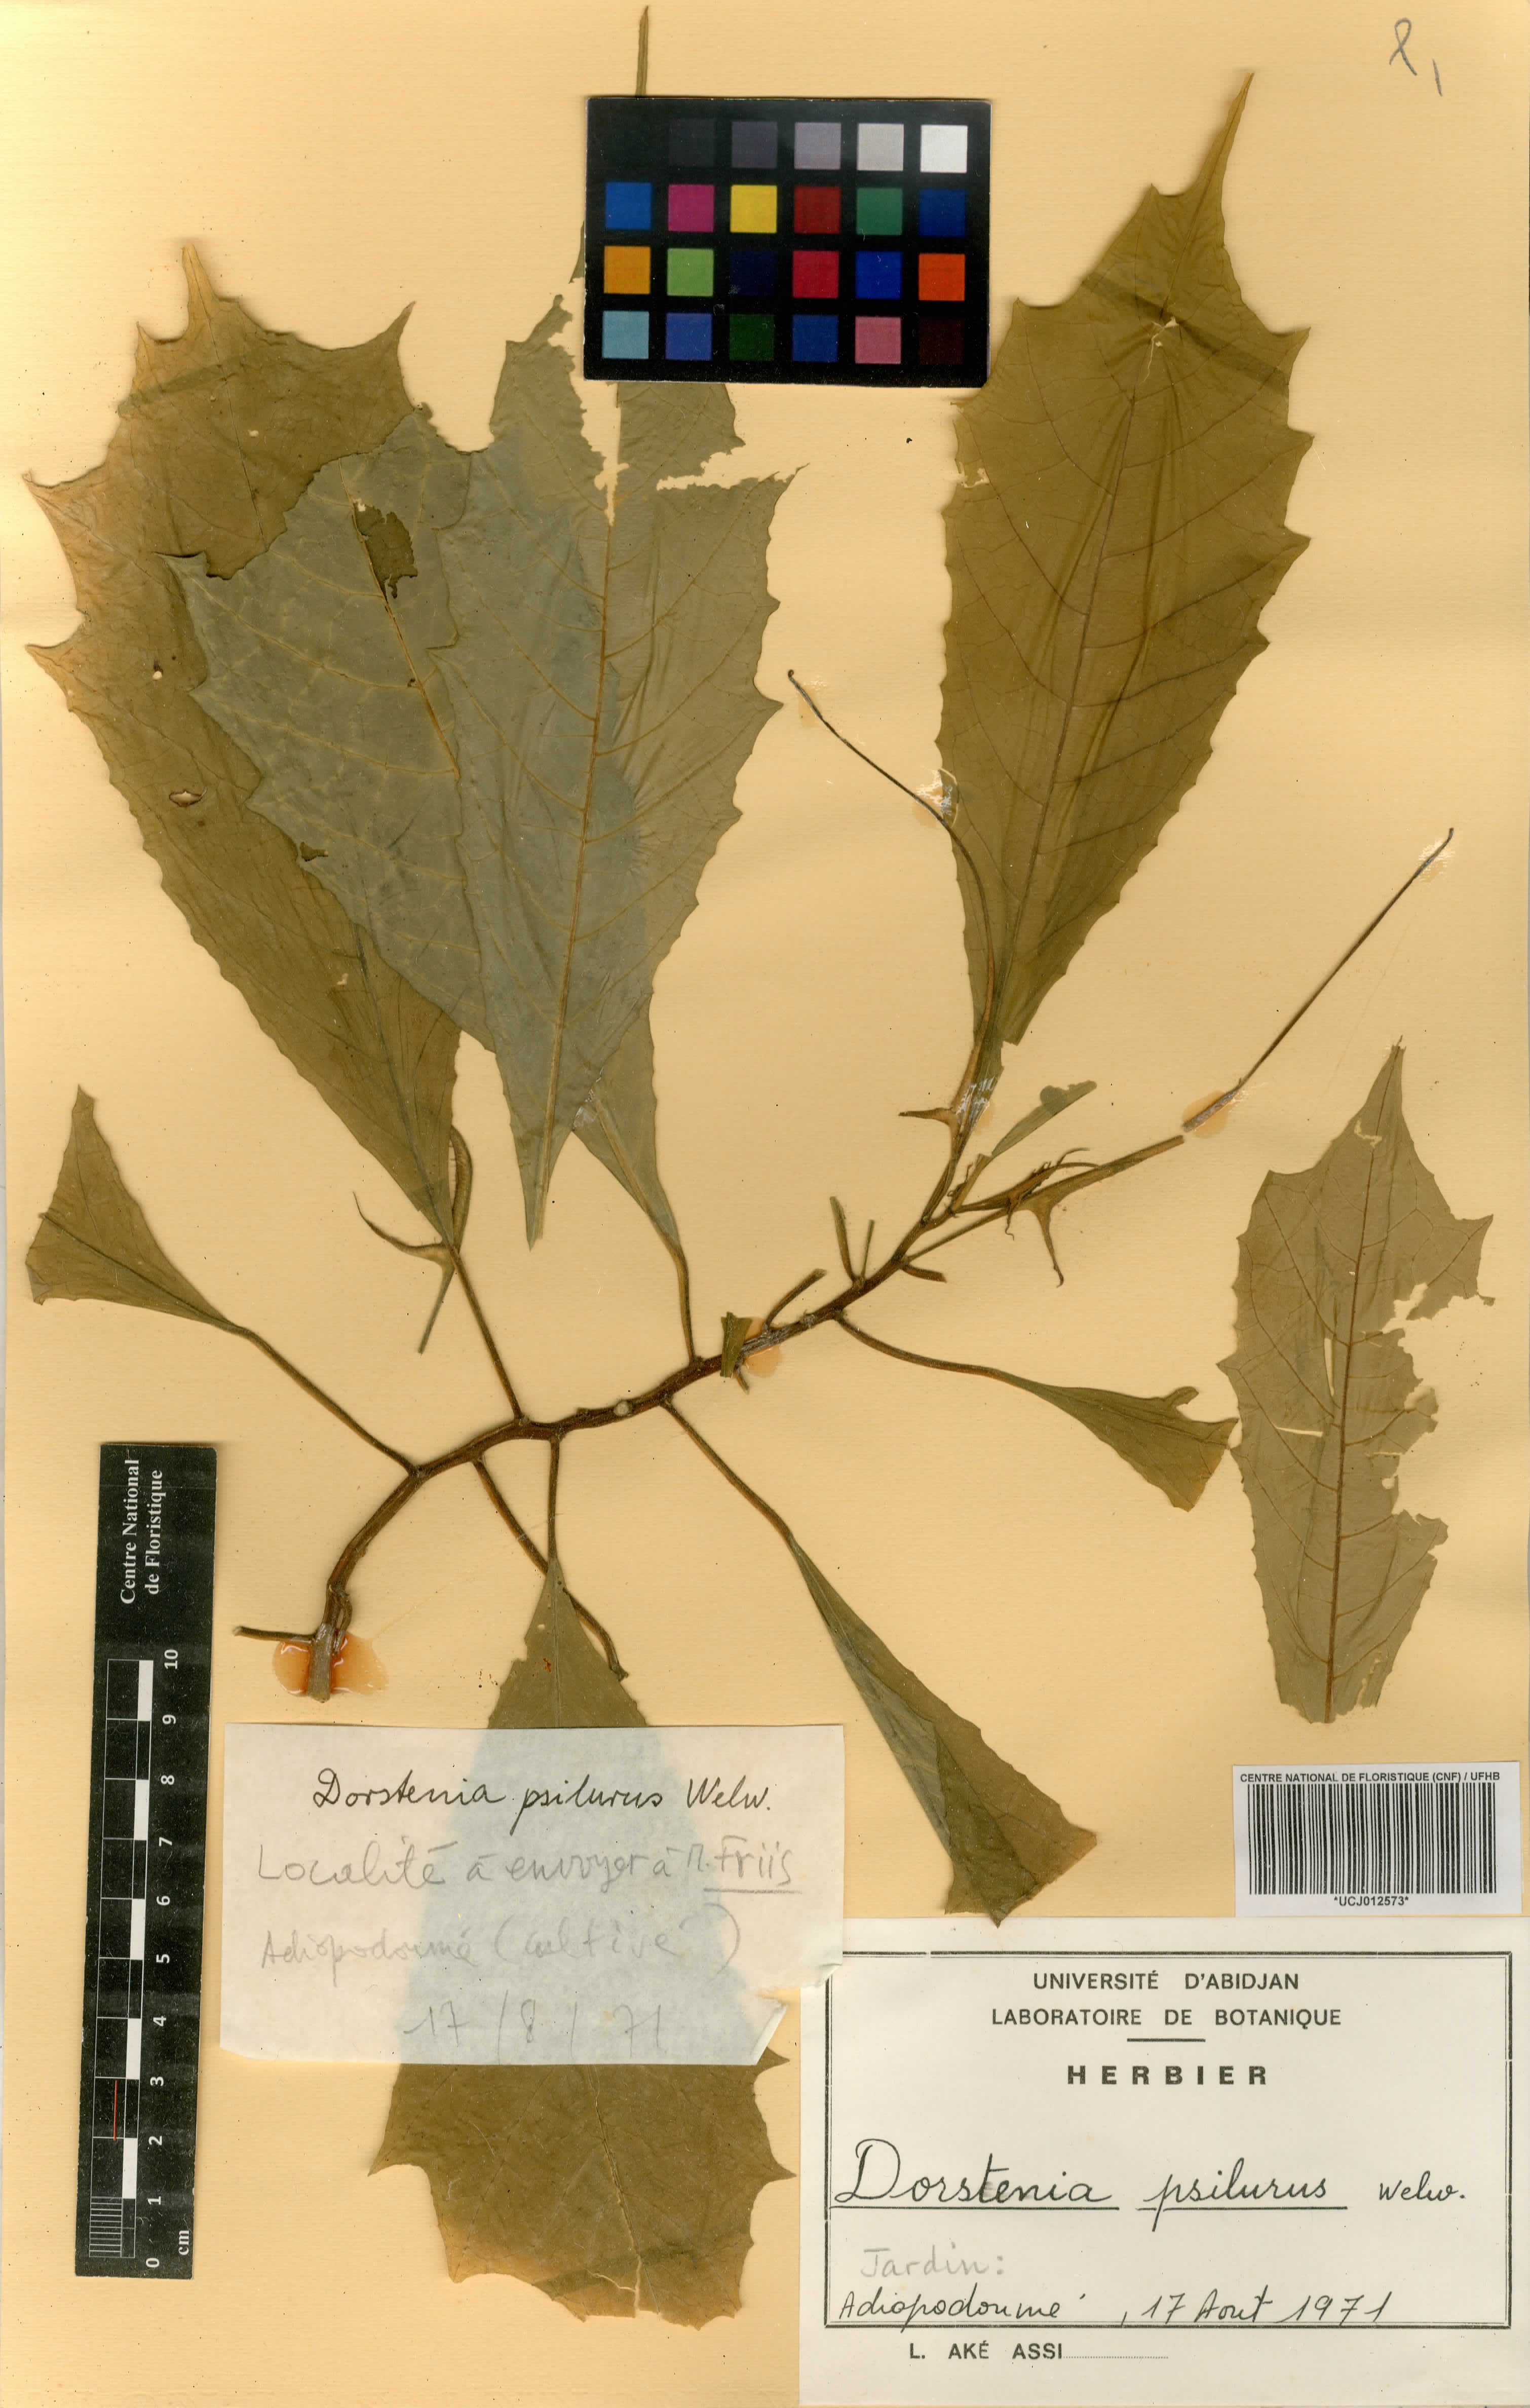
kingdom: Plantae
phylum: Tracheophyta
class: Magnoliopsida
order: Rosales
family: Moraceae
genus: Dorstenia
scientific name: Dorstenia psilurus
